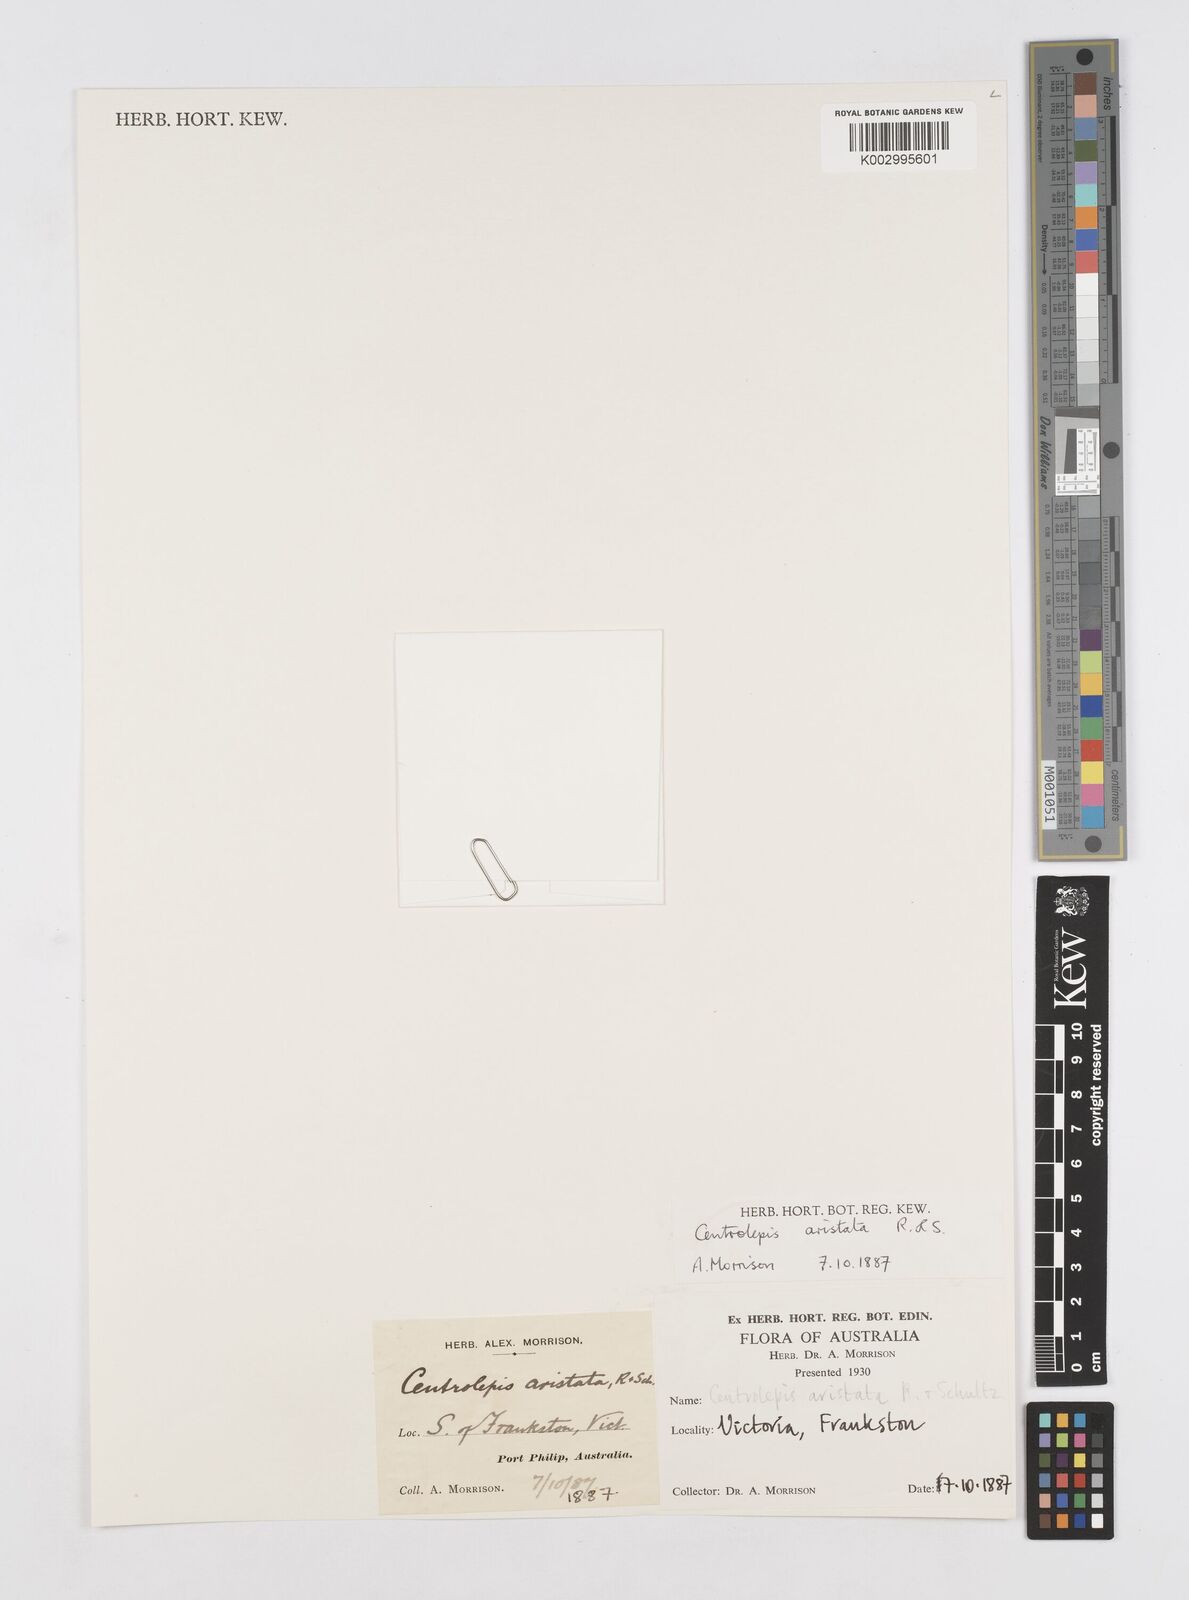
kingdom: Plantae
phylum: Tracheophyta
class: Liliopsida
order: Poales
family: Restionaceae
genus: Centrolepis
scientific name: Centrolepis aristata
